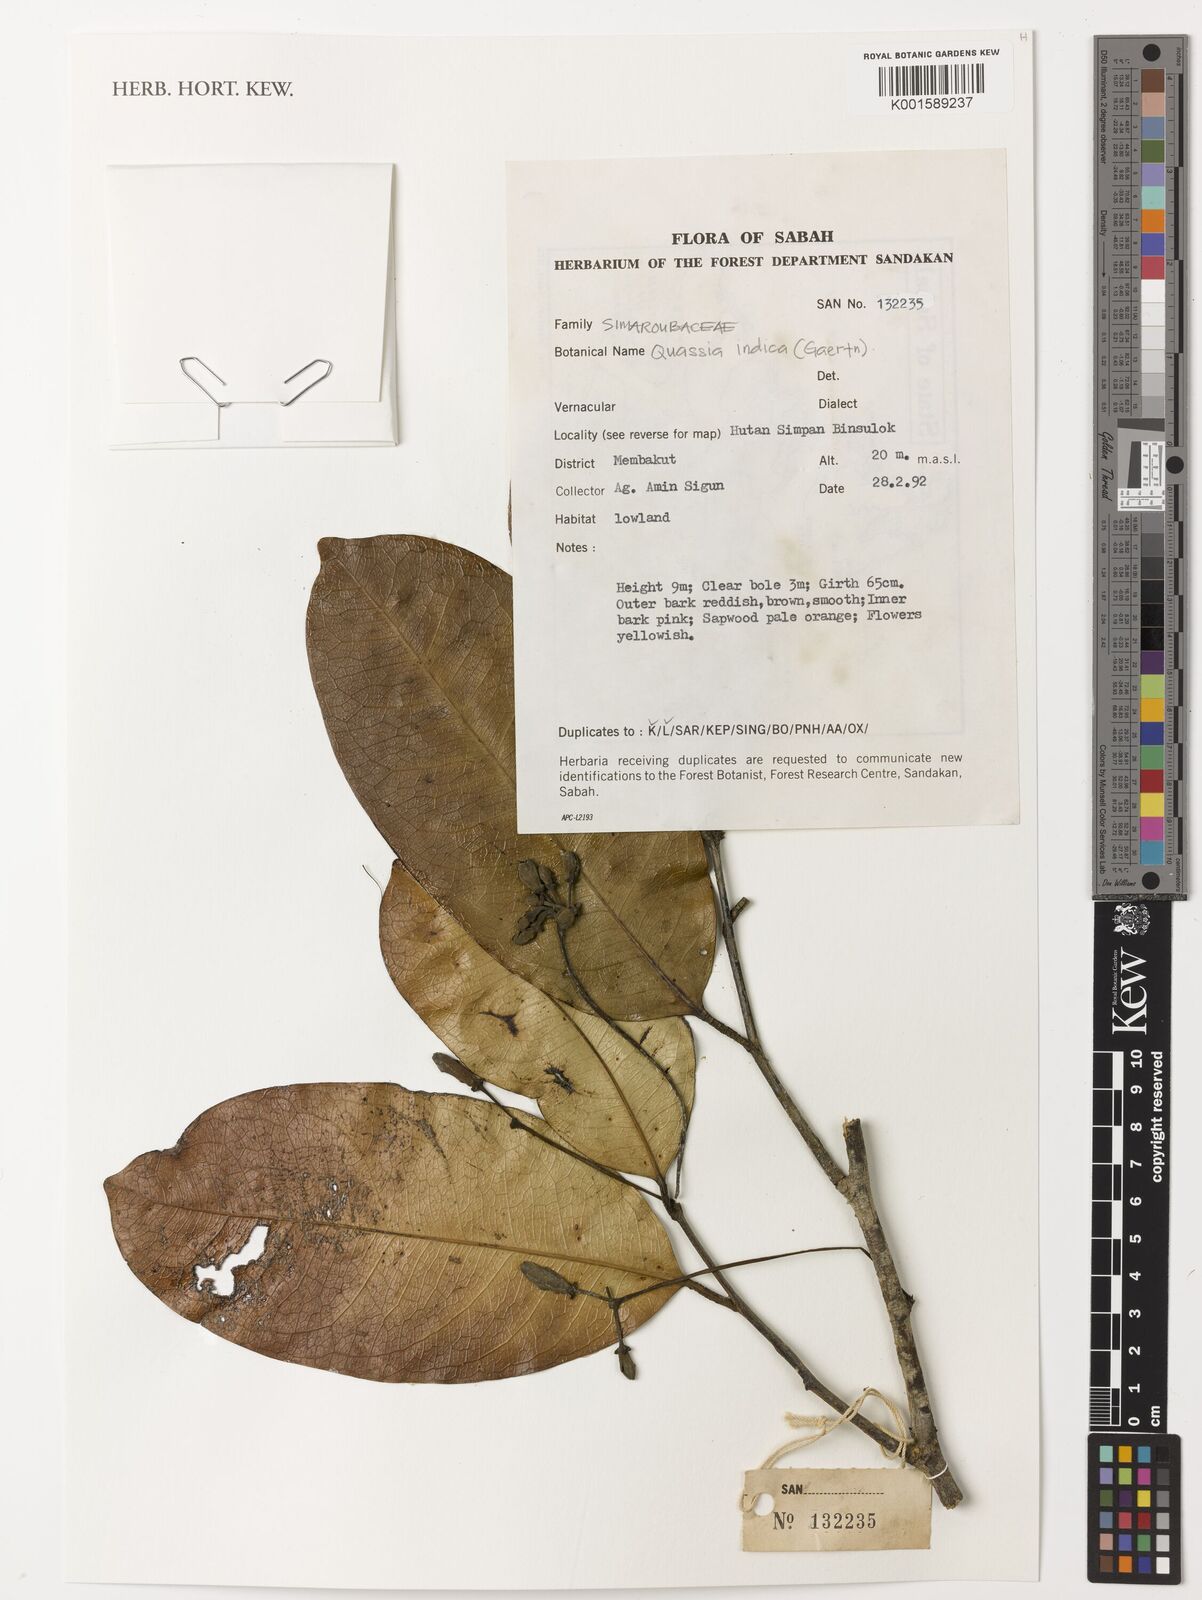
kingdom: Plantae
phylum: Tracheophyta
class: Magnoliopsida
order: Sapindales
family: Simaroubaceae
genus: Samadera
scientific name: Samadera indica
